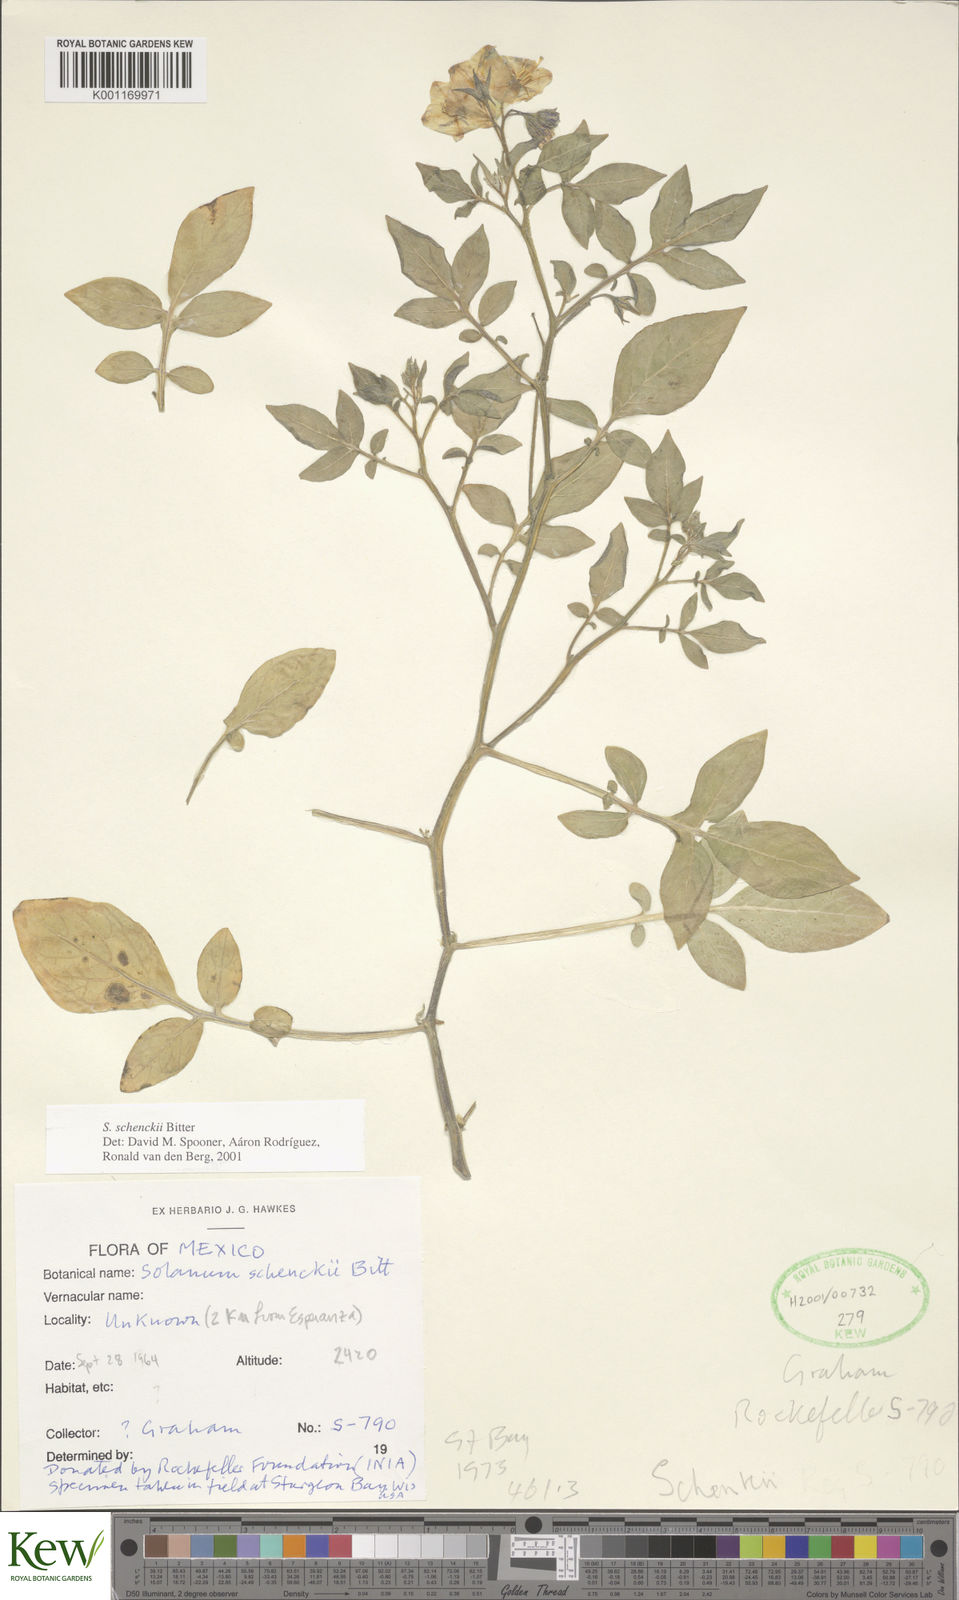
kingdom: Plantae
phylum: Tracheophyta
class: Magnoliopsida
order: Solanales
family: Solanaceae
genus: Solanum
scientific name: Solanum schenckii
